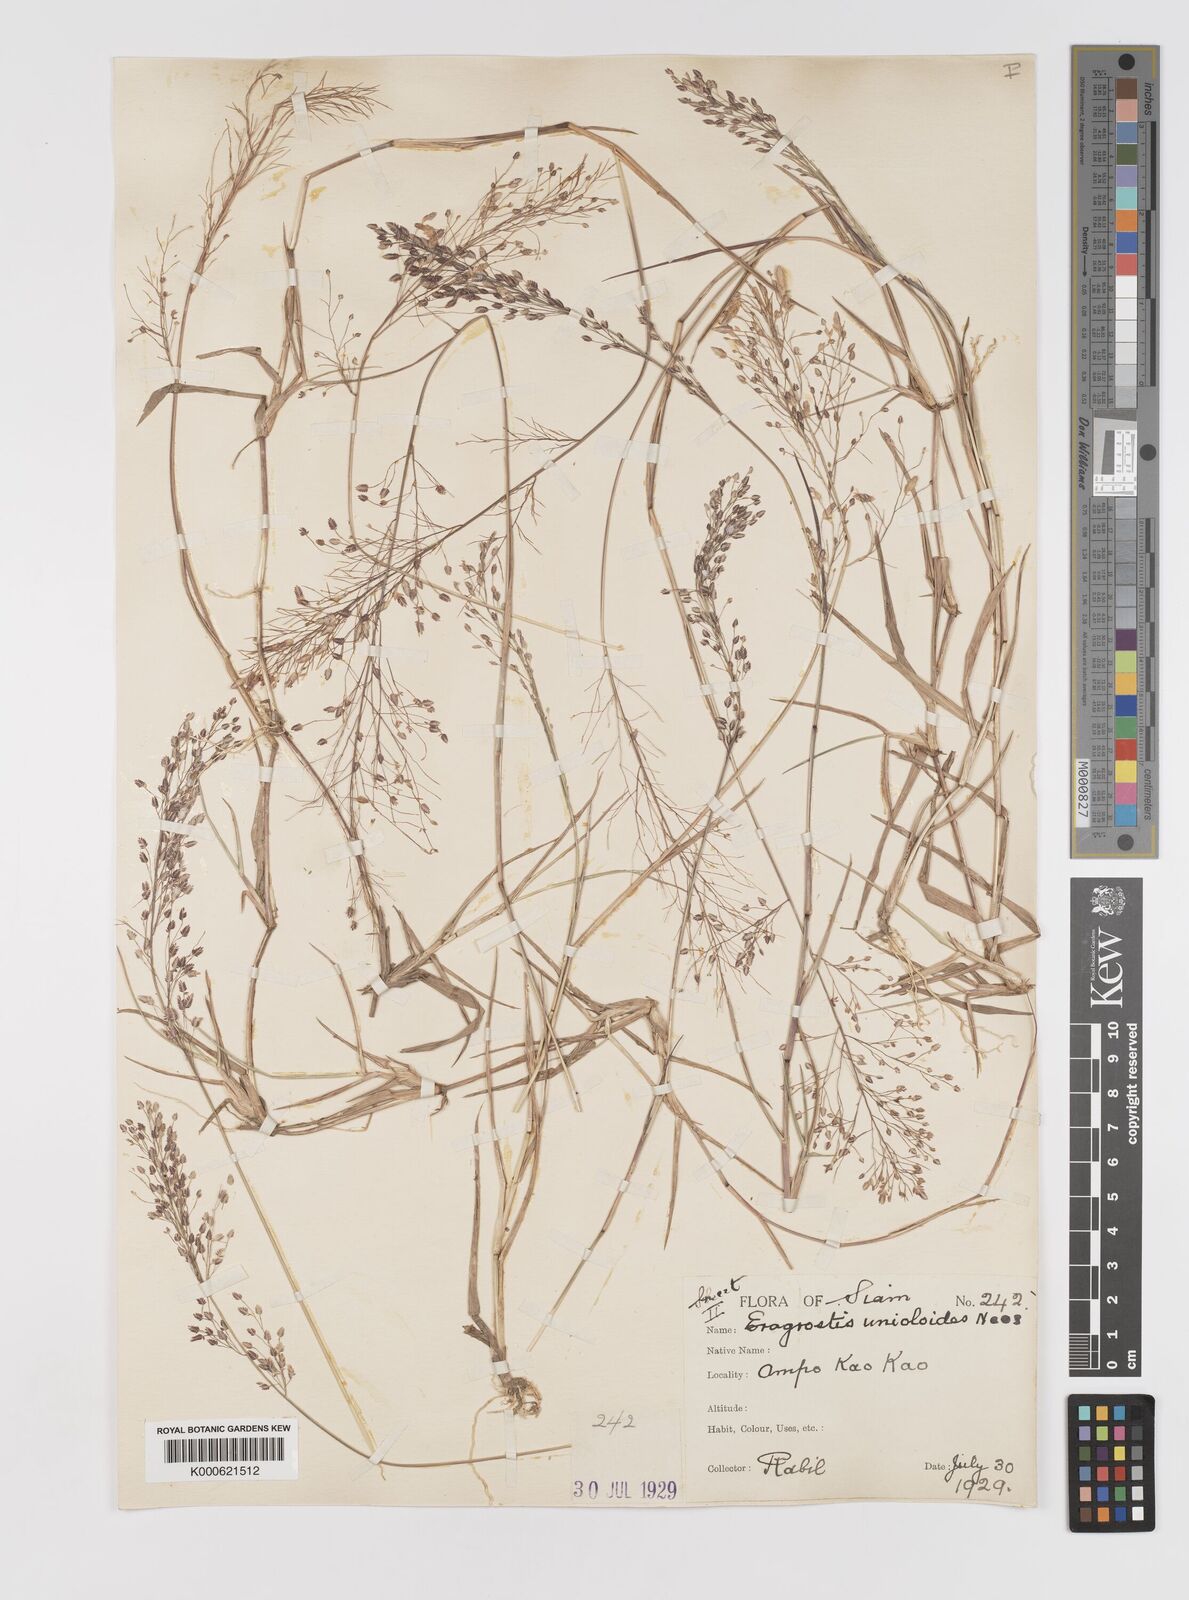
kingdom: Plantae
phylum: Tracheophyta
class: Liliopsida
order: Poales
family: Poaceae
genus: Eragrostis
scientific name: Eragrostis unioloides
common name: Chinese lovegrass
